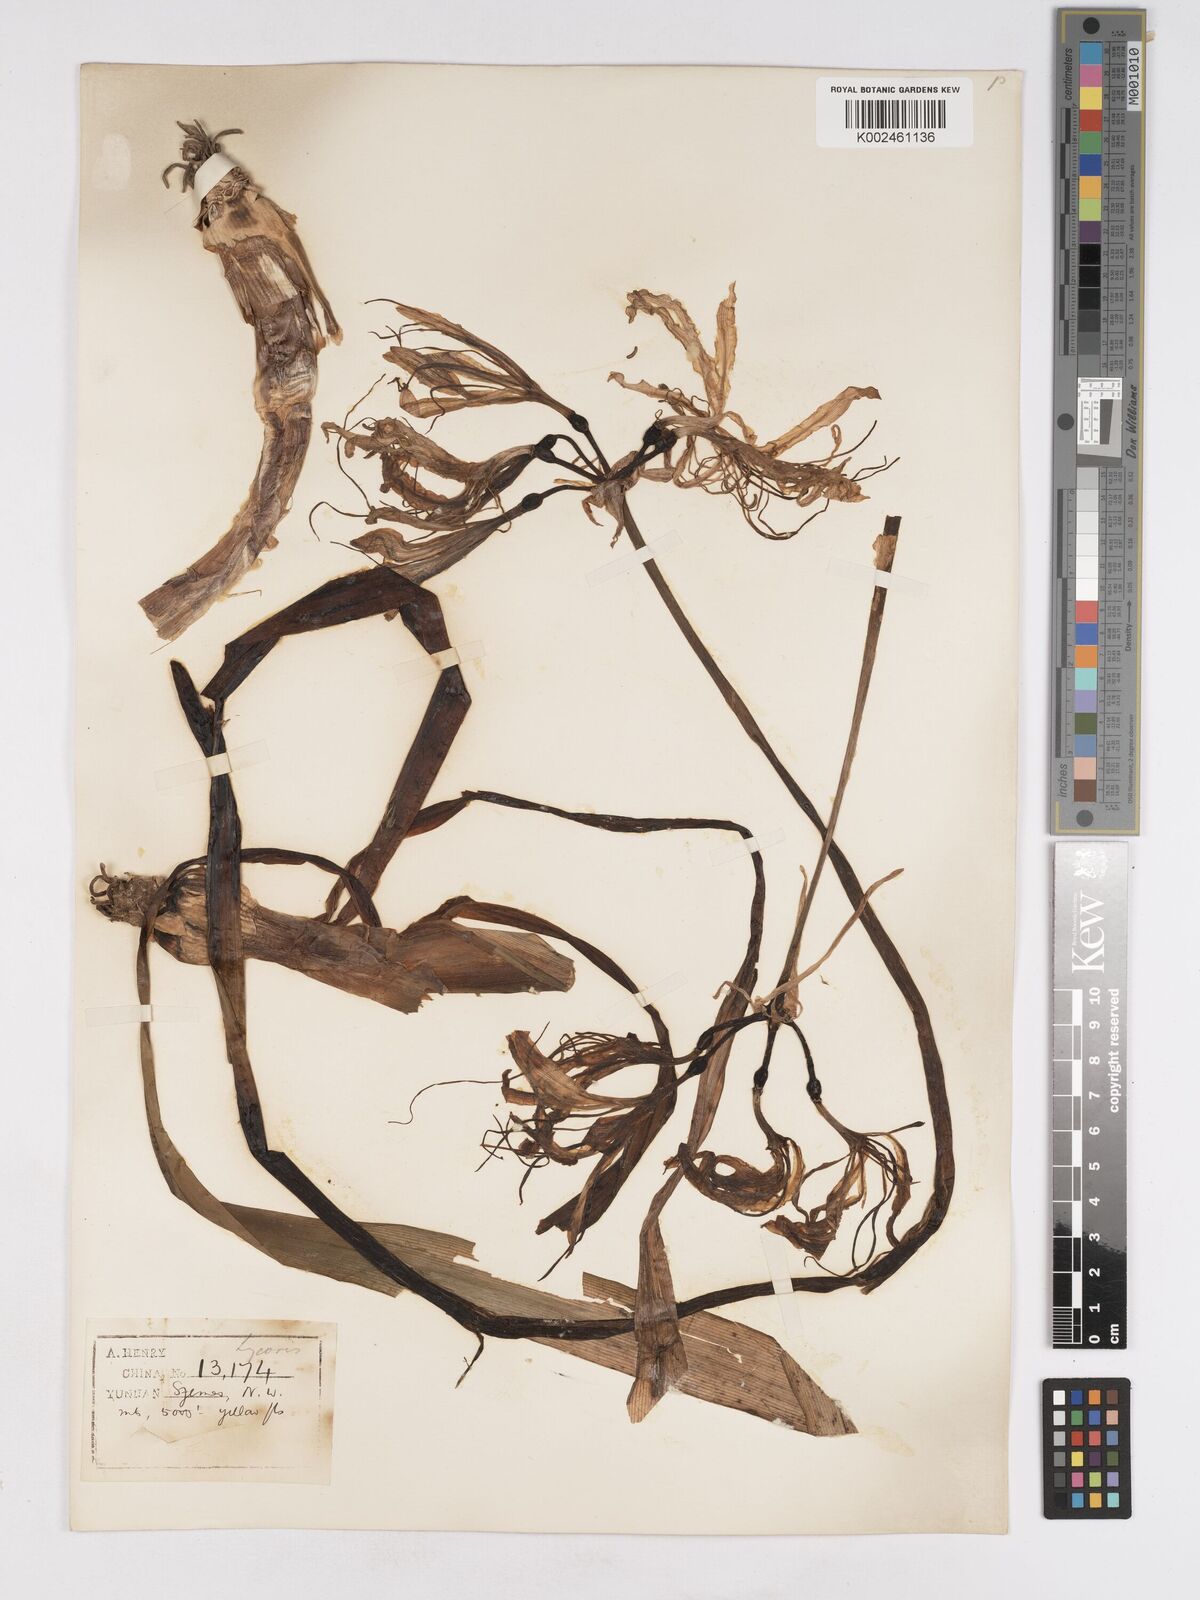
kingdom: Plantae
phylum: Tracheophyta
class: Liliopsida
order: Asparagales
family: Amaryllidaceae
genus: Lycoris
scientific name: Lycoris aurea
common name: Golden hurricane-lily
